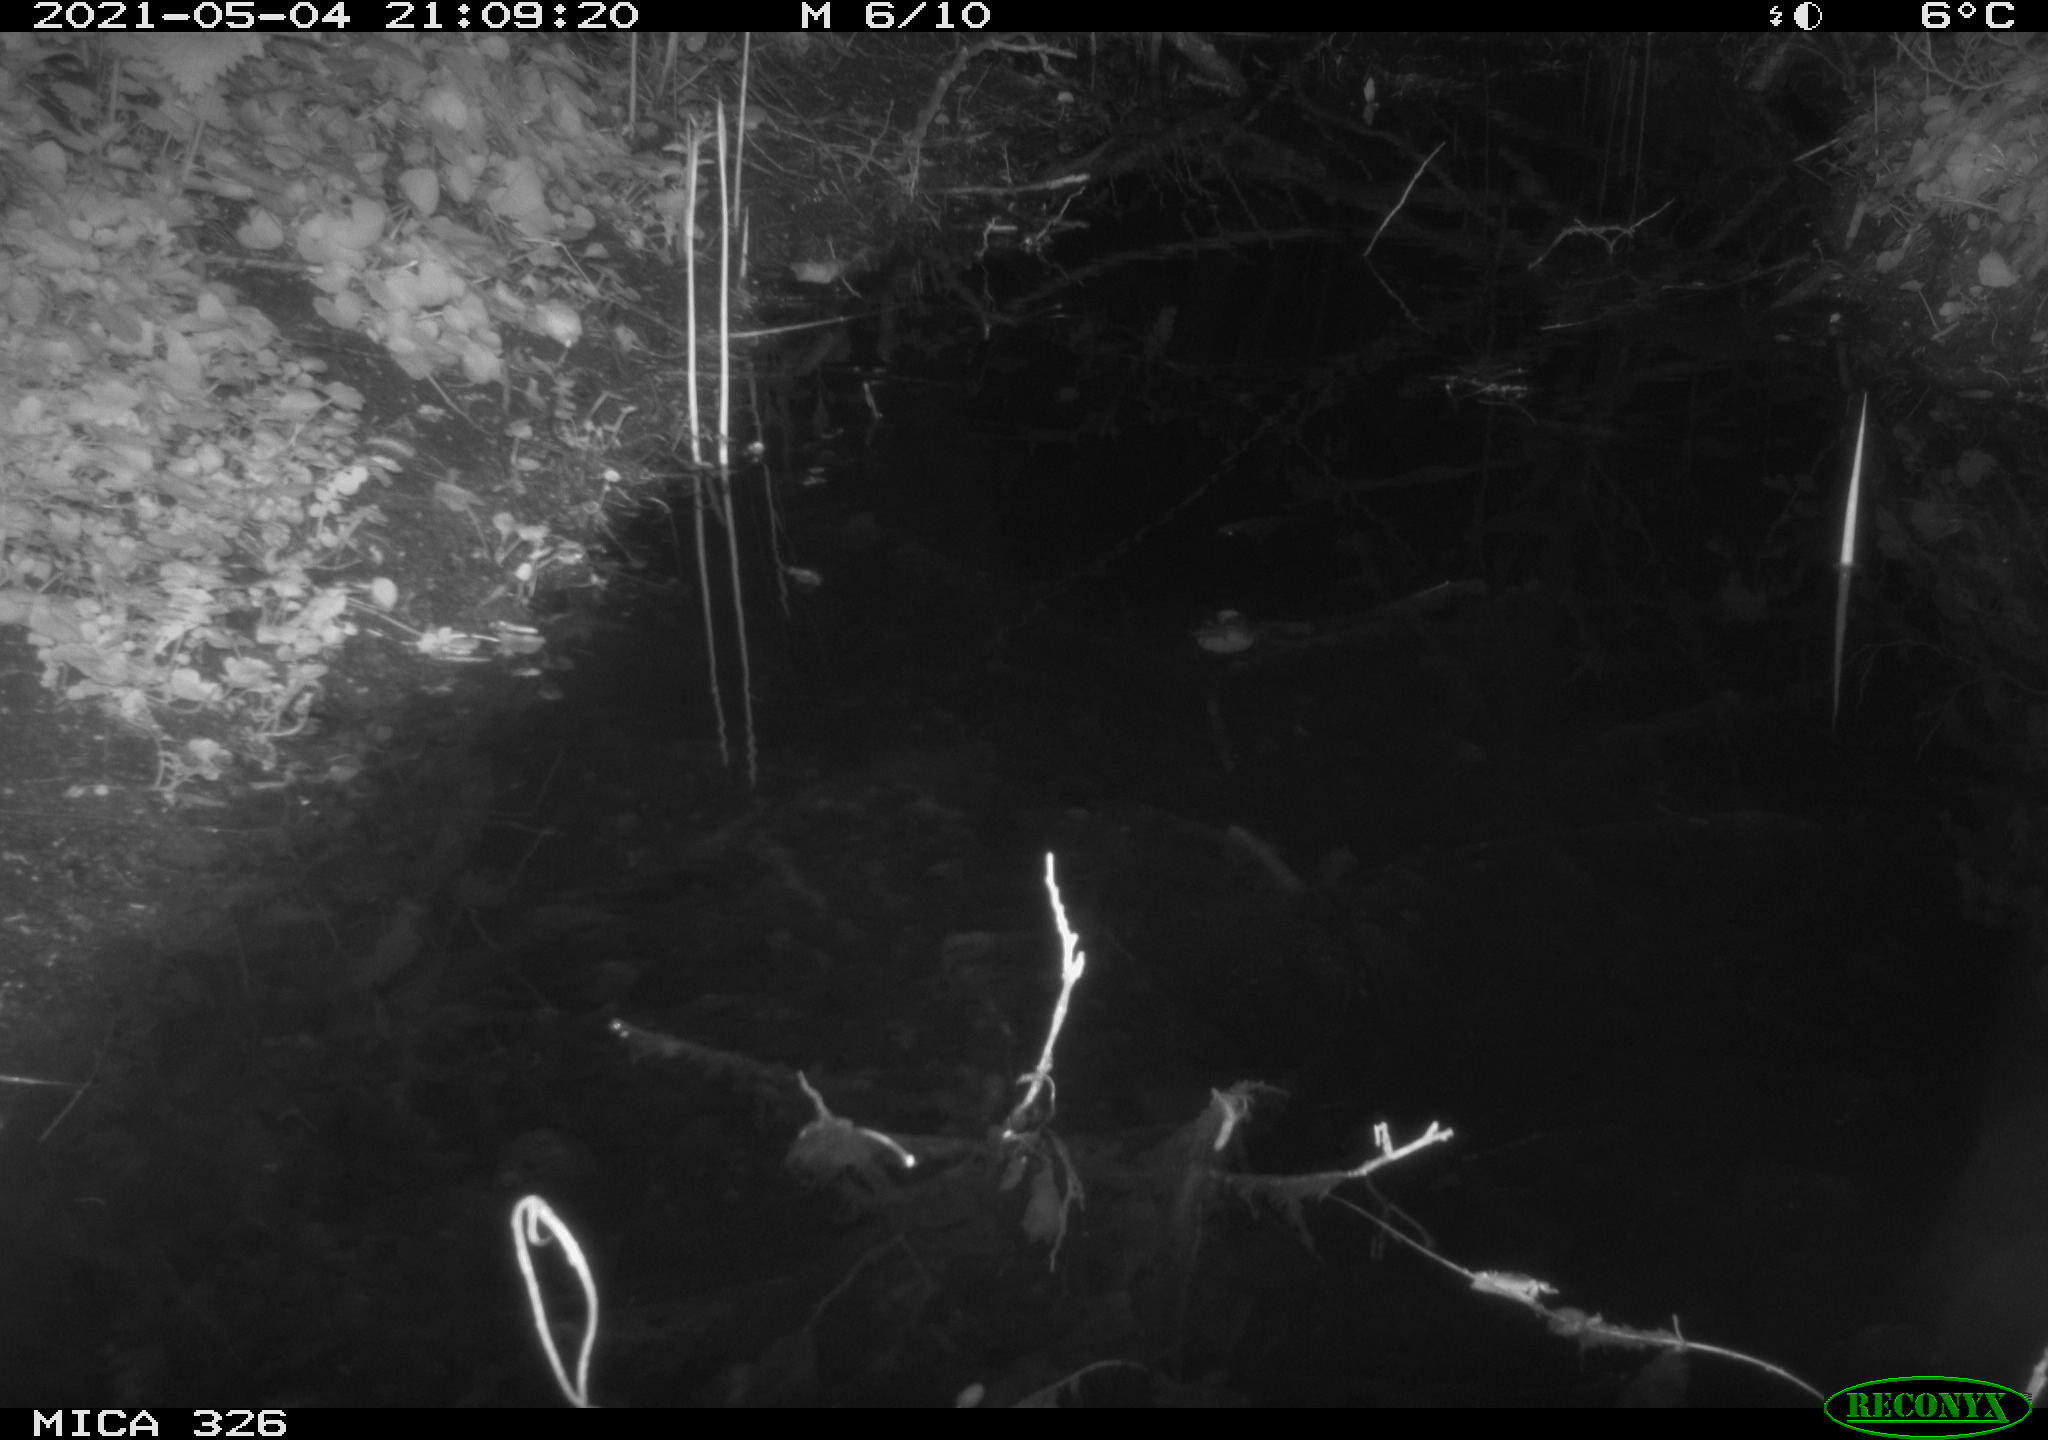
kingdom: Animalia
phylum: Chordata
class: Mammalia
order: Rodentia
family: Muridae
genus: Rattus
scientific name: Rattus norvegicus
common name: Brown rat
